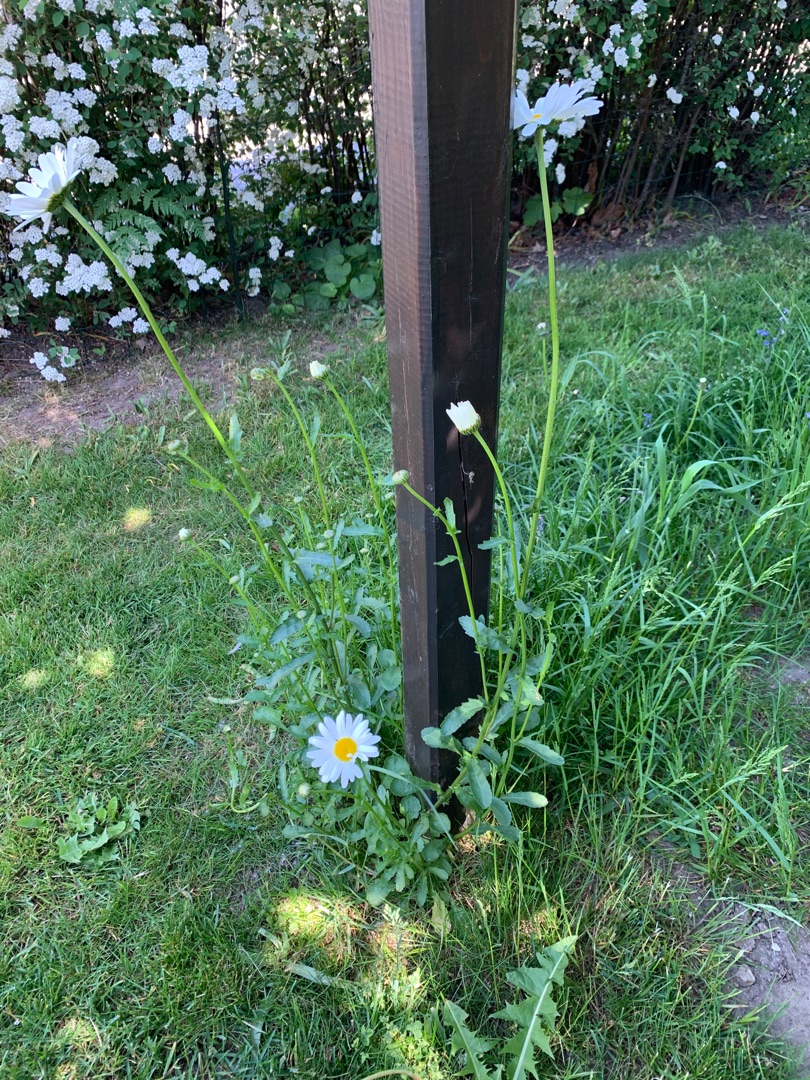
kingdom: Plantae
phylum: Tracheophyta
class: Magnoliopsida
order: Asterales
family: Asteraceae
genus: Leucanthemum
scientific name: Leucanthemum vulgare
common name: Hvid okseøje
